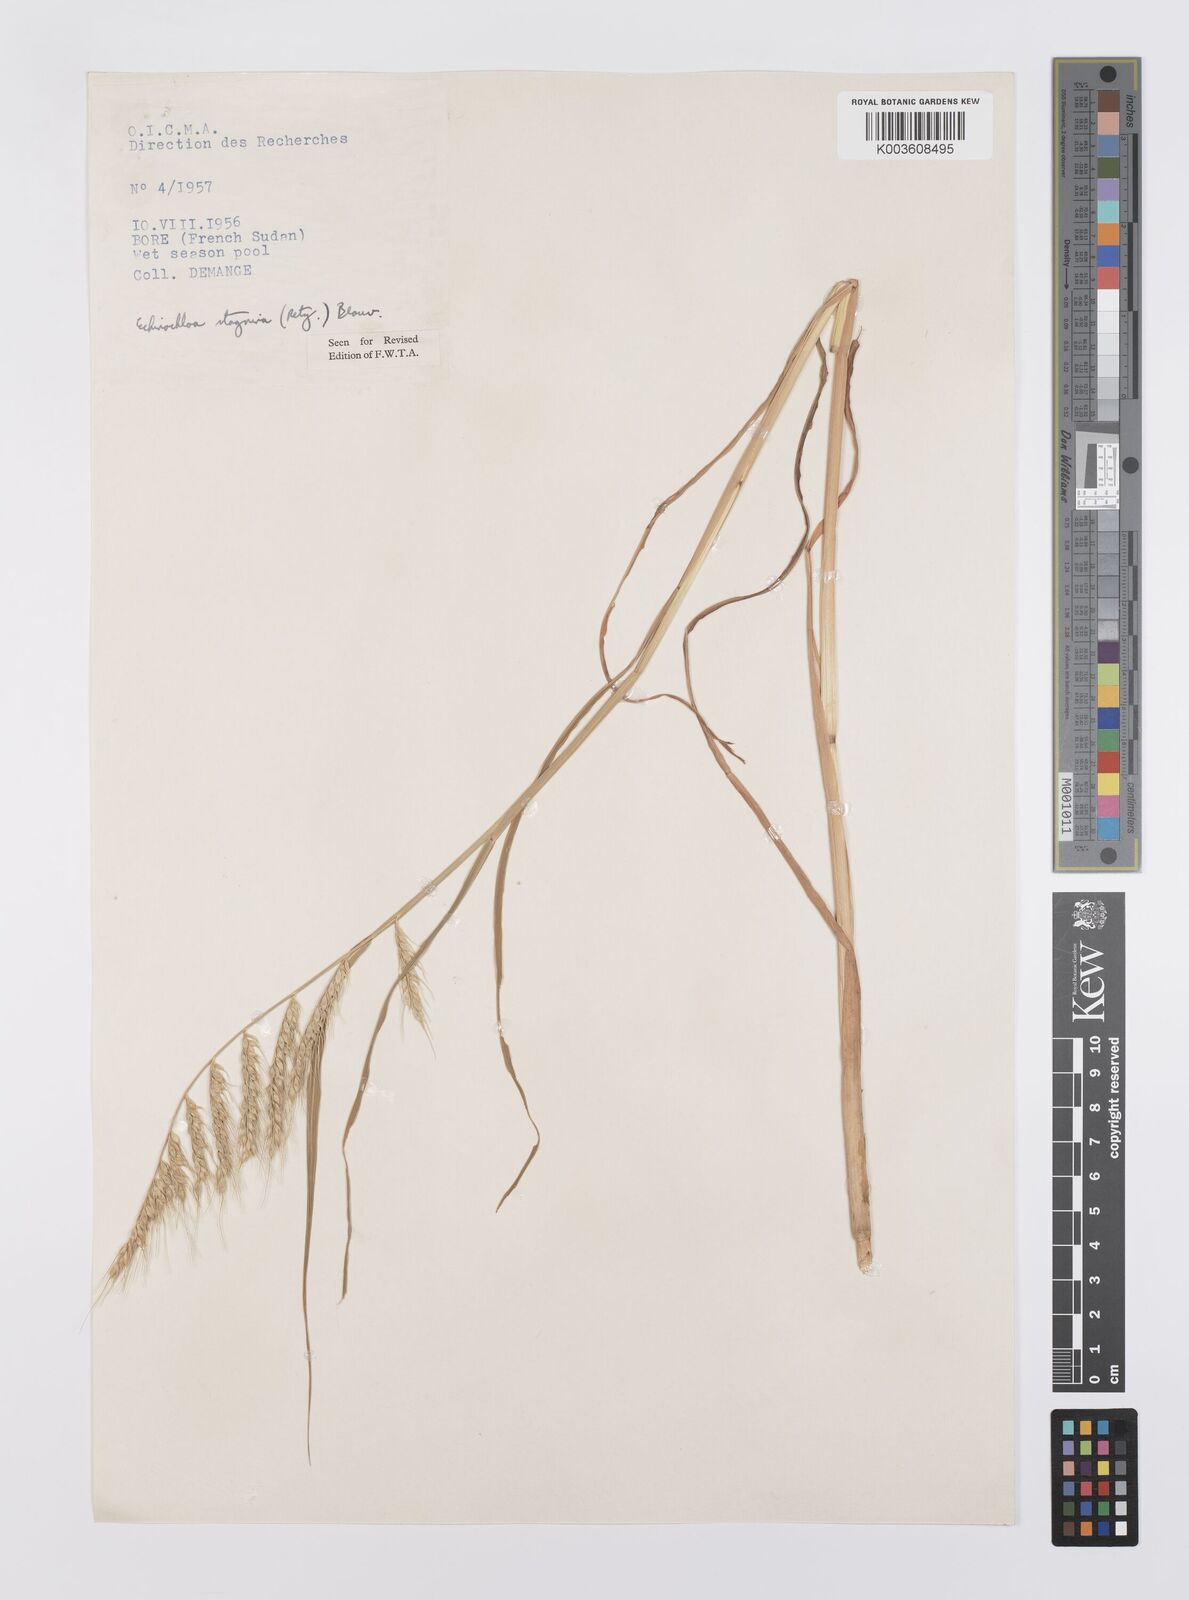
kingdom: Plantae
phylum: Tracheophyta
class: Liliopsida
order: Poales
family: Poaceae
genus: Echinochloa
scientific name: Echinochloa stagnina
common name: Burgu grass
